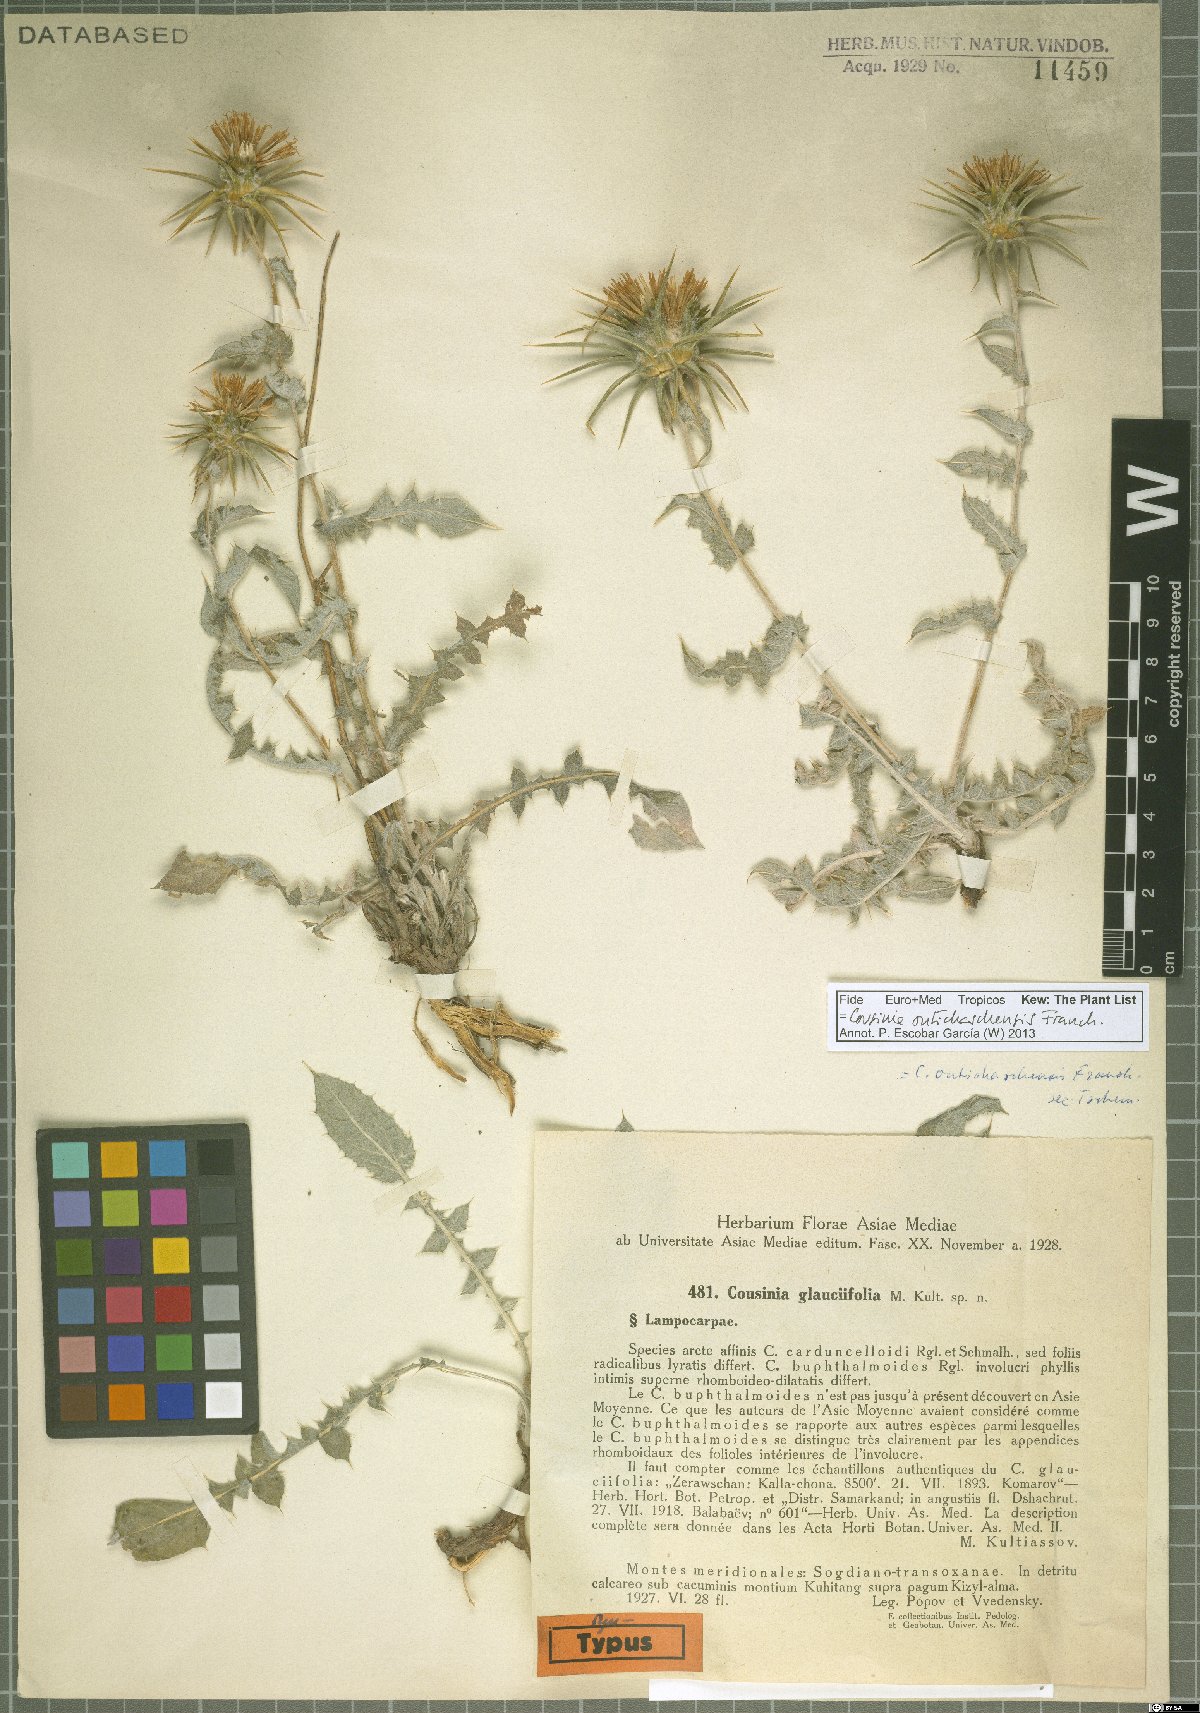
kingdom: Plantae
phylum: Tracheophyta
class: Magnoliopsida
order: Asterales
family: Asteraceae
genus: Cousinia
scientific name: Cousinia outichaschensis
